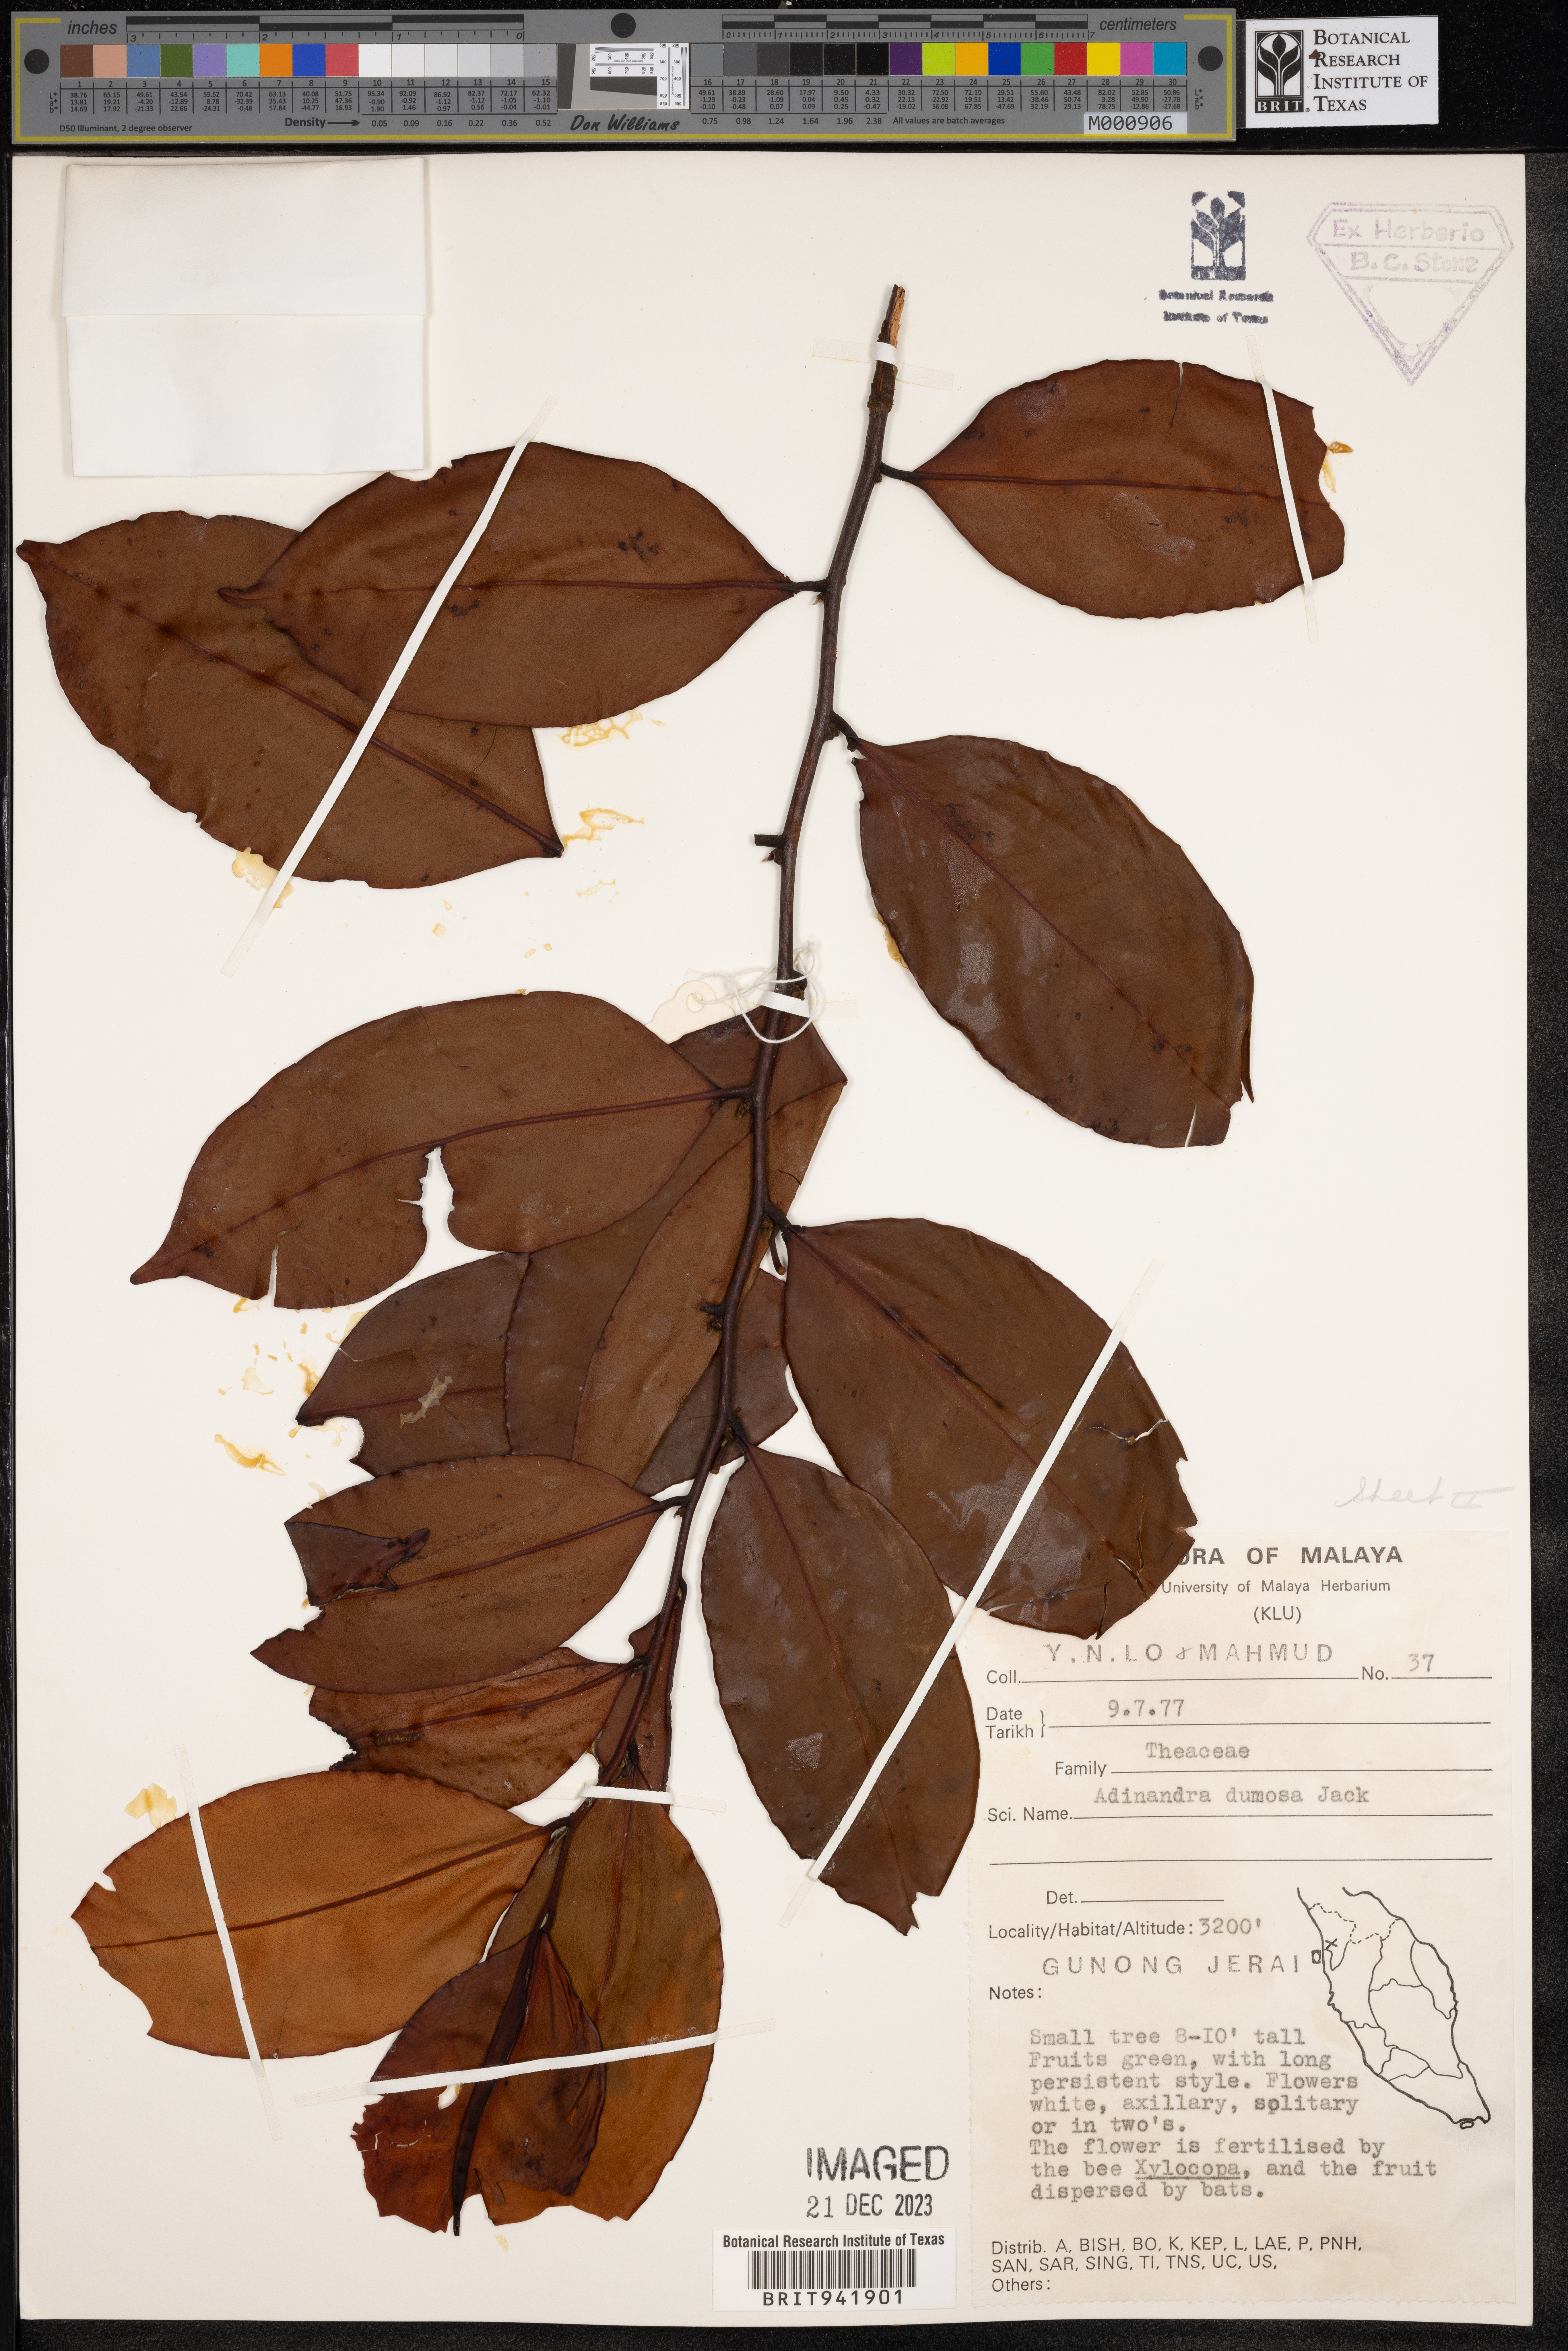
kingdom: Plantae
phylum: Tracheophyta
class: Magnoliopsida
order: Ericales
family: Pentaphylacaceae
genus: Adinandra
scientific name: Adinandra
